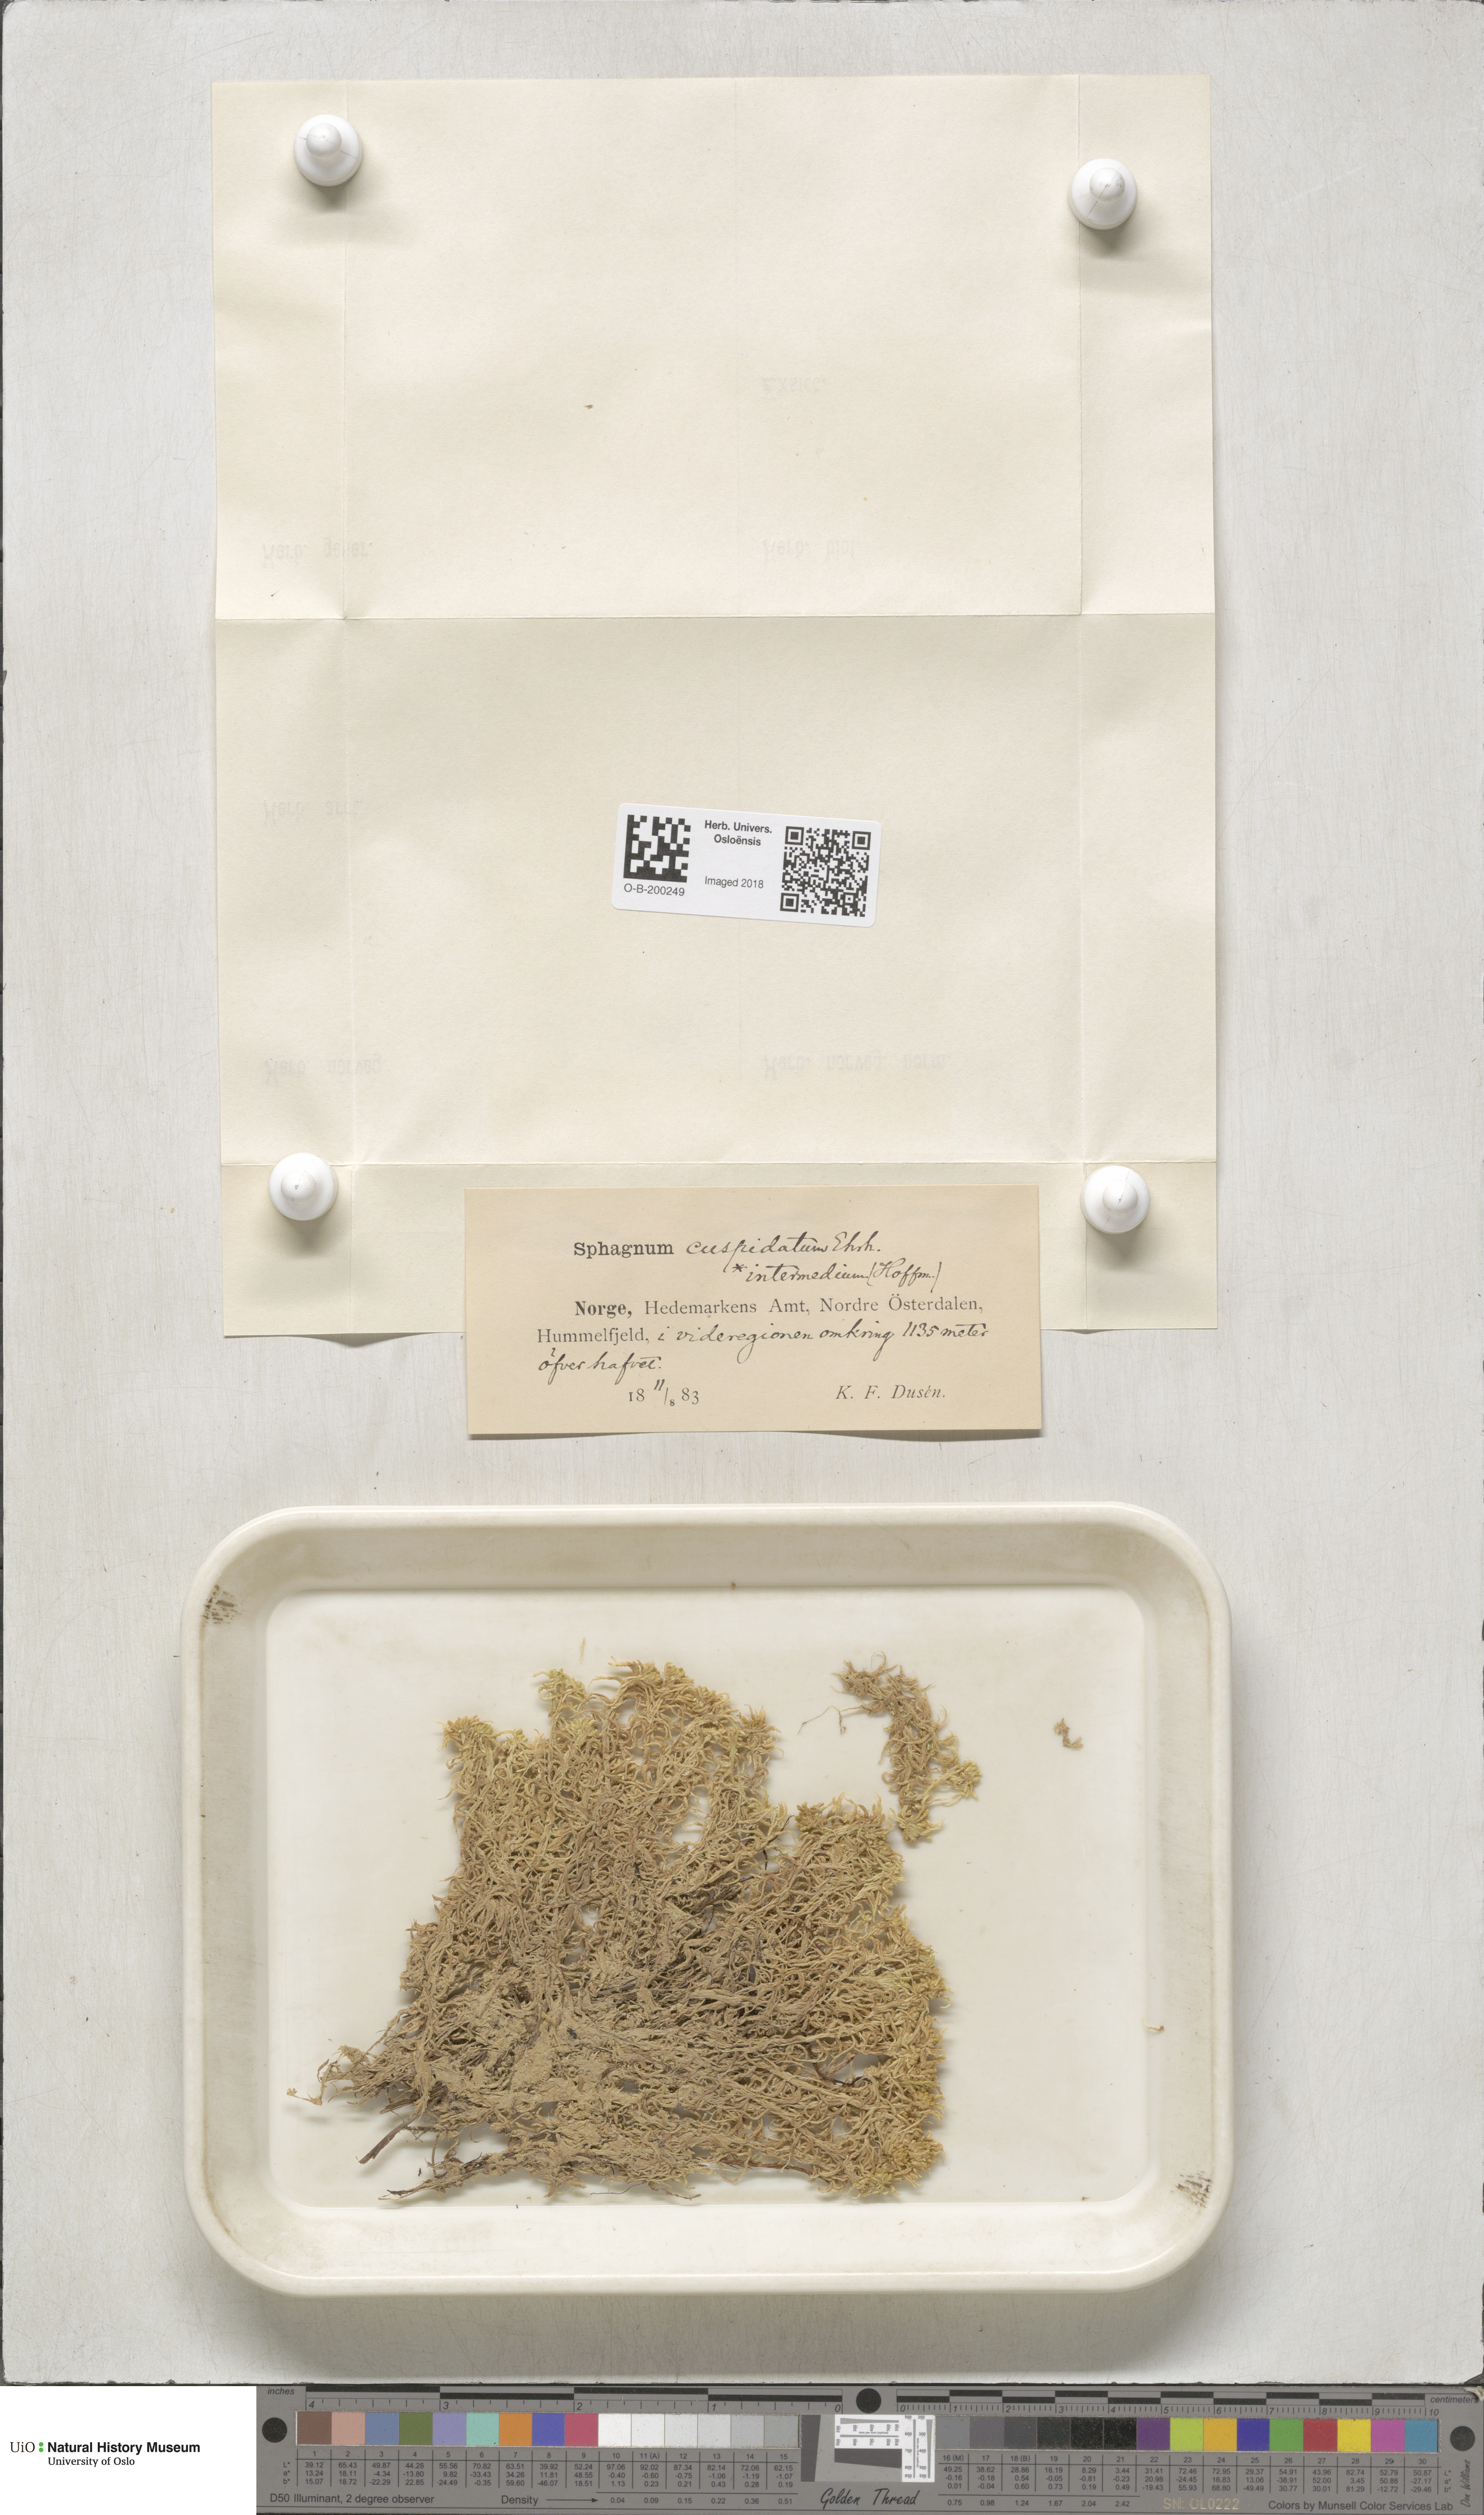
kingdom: Plantae
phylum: Bryophyta
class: Sphagnopsida
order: Sphagnales
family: Sphagnaceae
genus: Sphagnum
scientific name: Sphagnum fallax
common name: Flat-top peat moss
